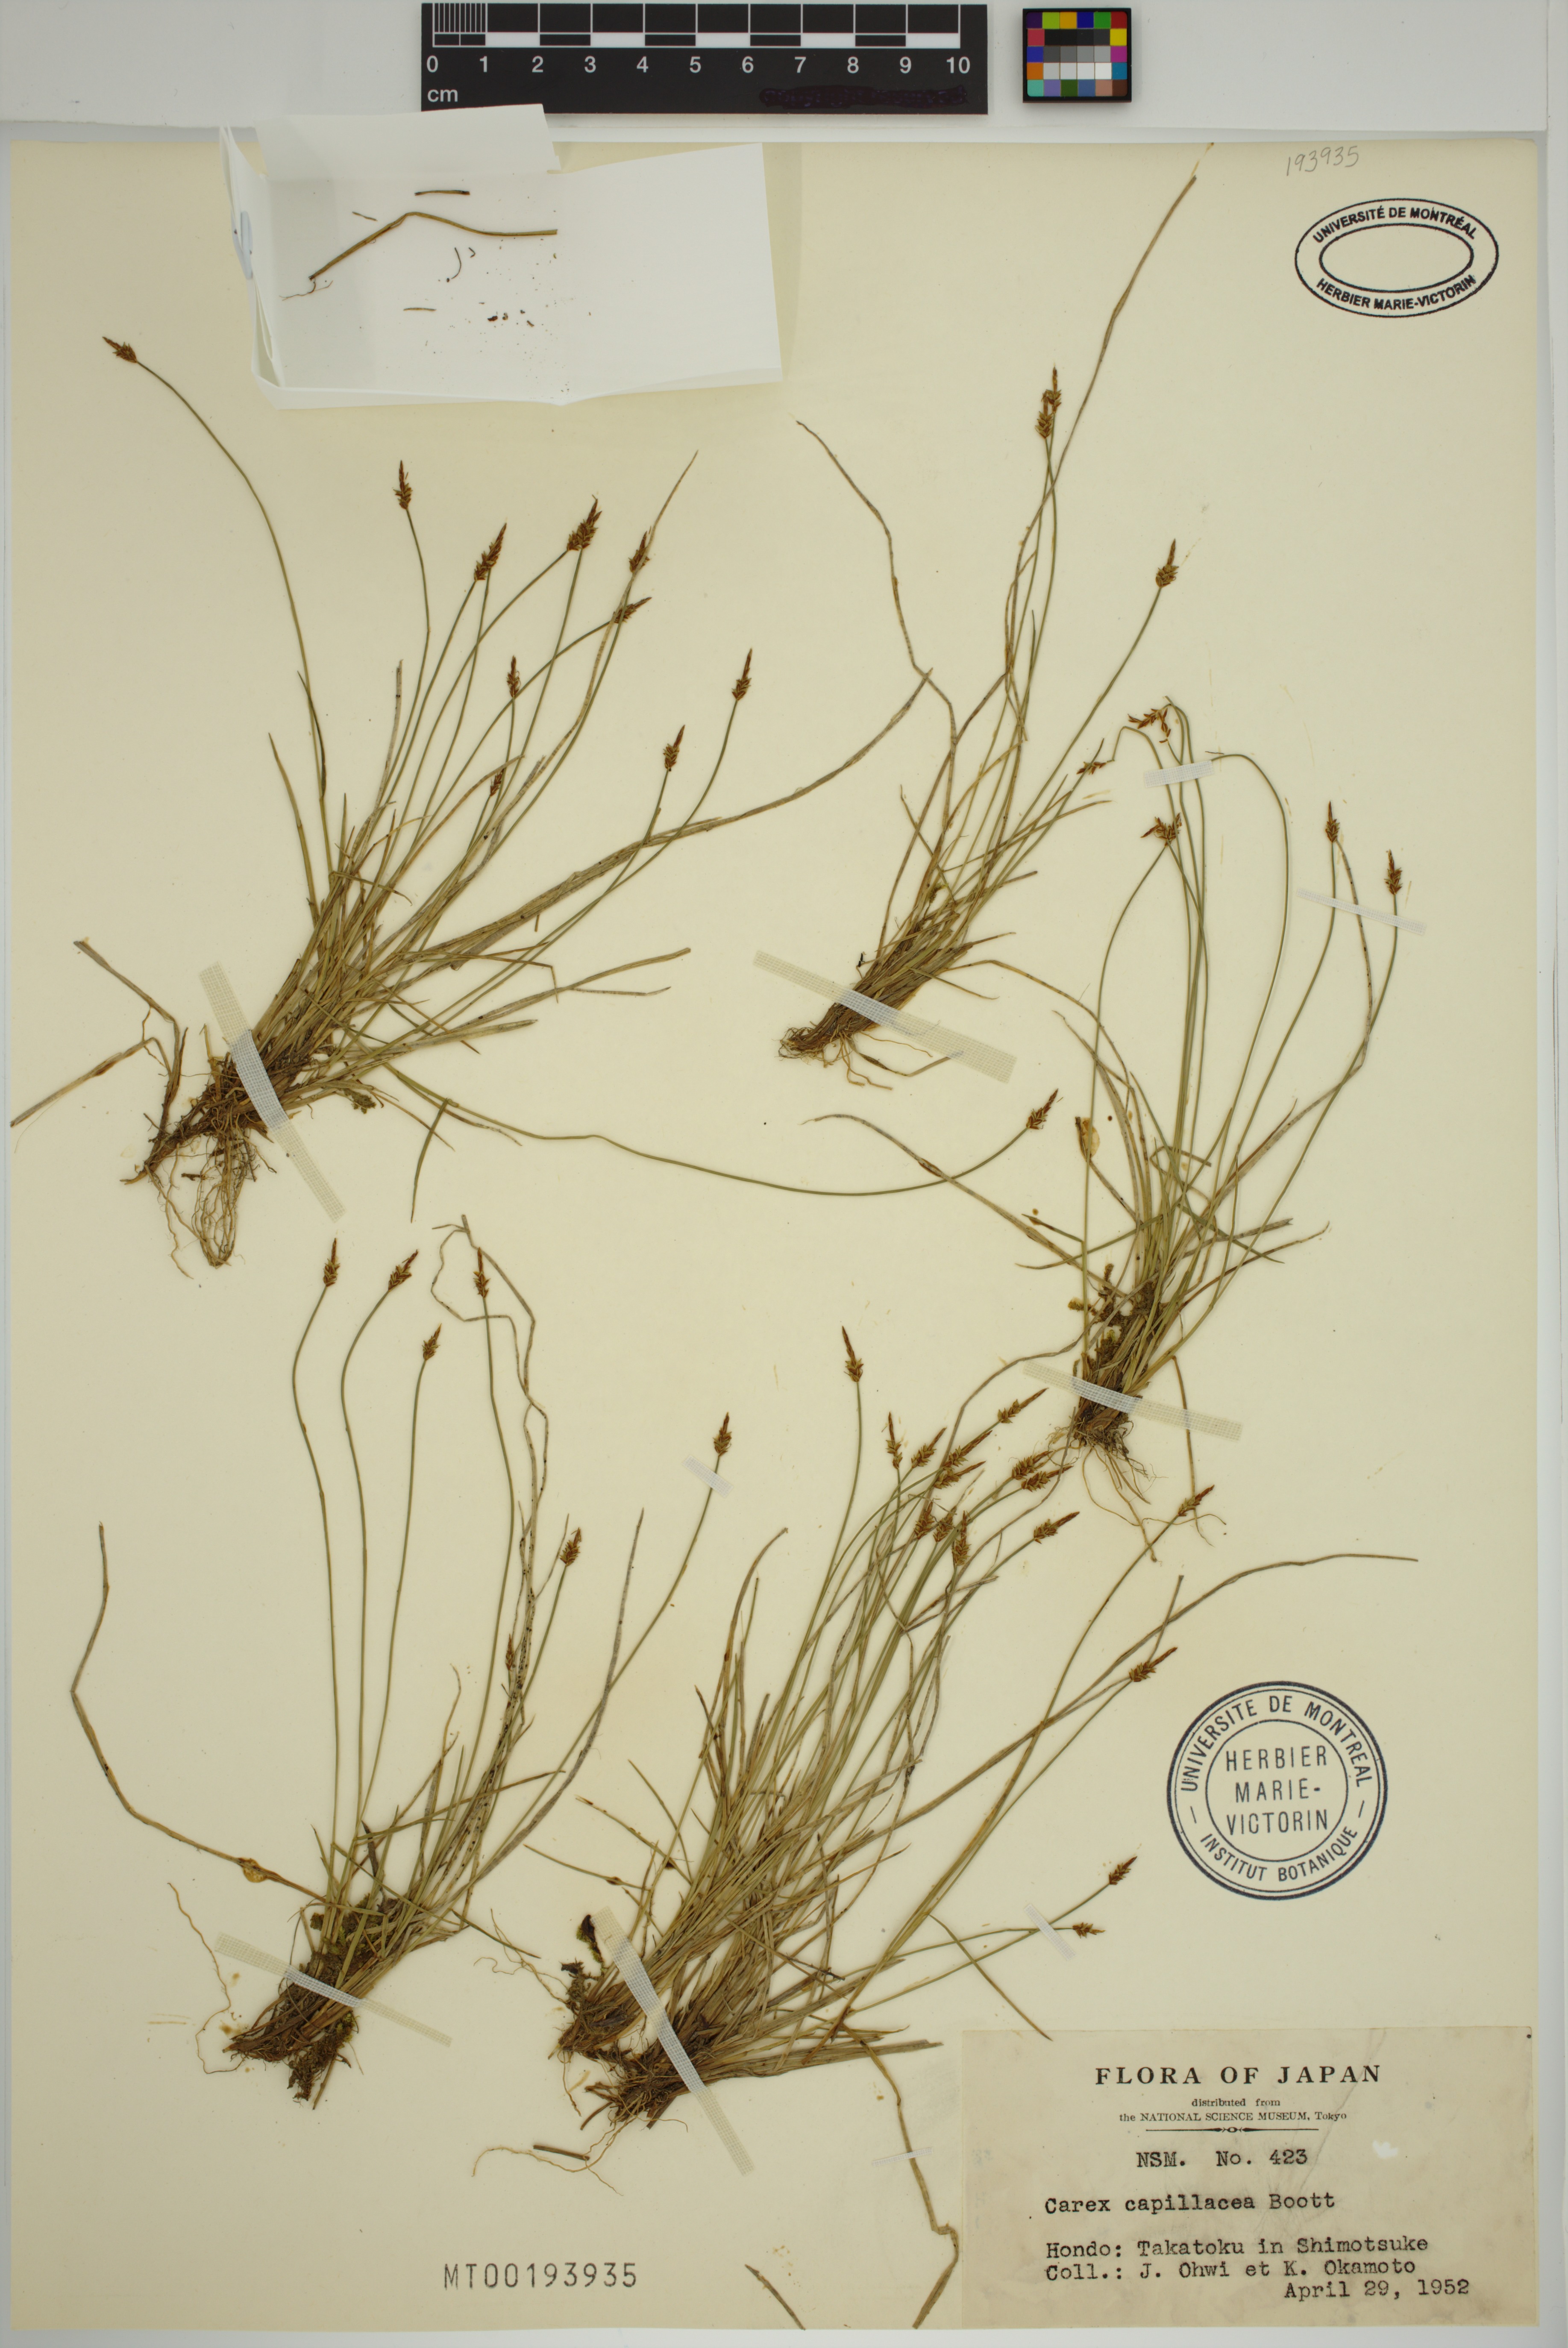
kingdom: Plantae
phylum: Tracheophyta
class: Liliopsida
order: Poales
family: Cyperaceae
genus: Carex
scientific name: Carex capillacea
